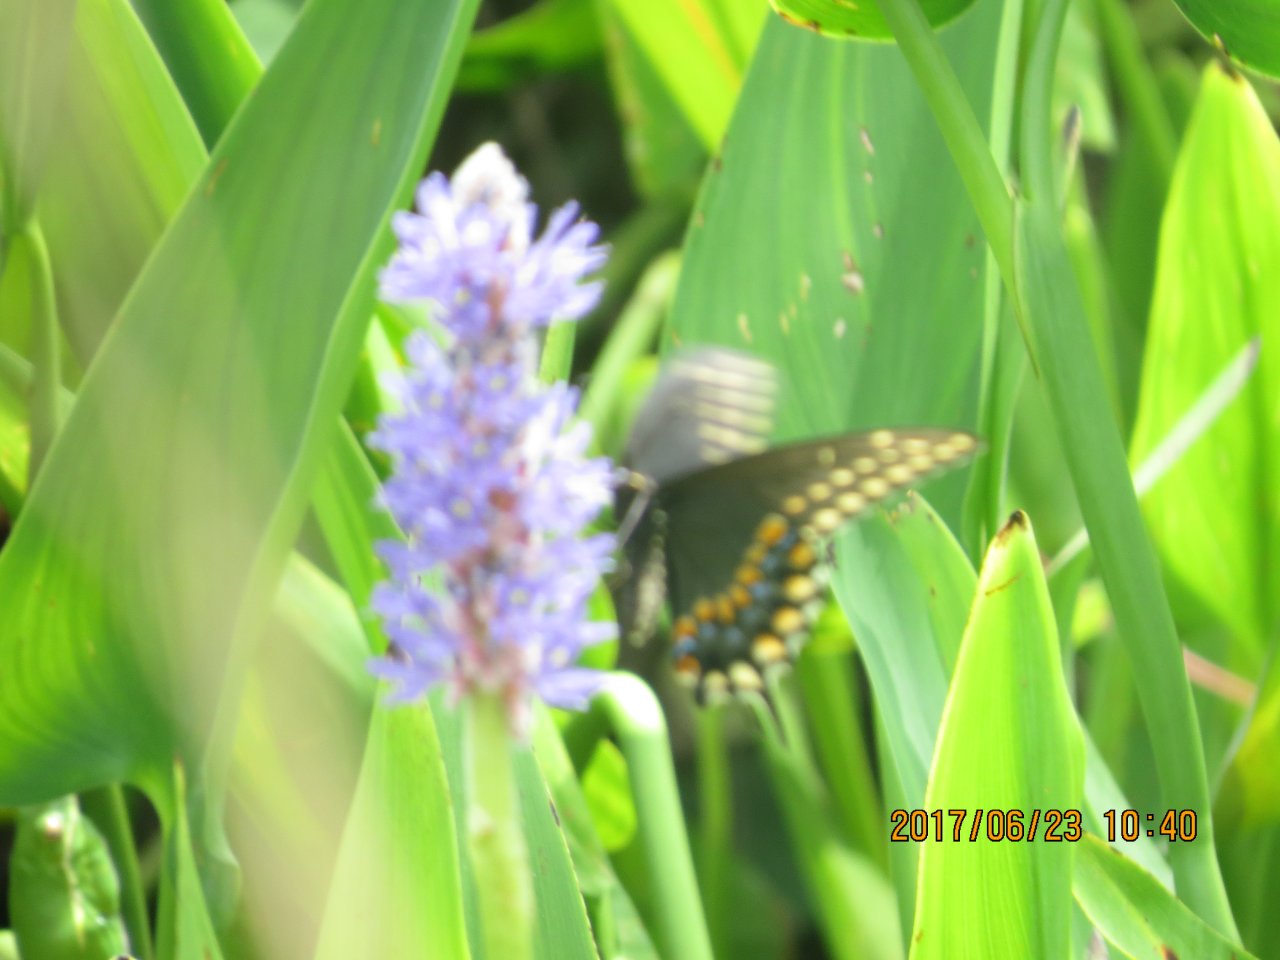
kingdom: Animalia
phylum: Arthropoda
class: Insecta
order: Lepidoptera
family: Papilionidae
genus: Papilio
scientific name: Papilio polyxenes
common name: Black Swallowtail
